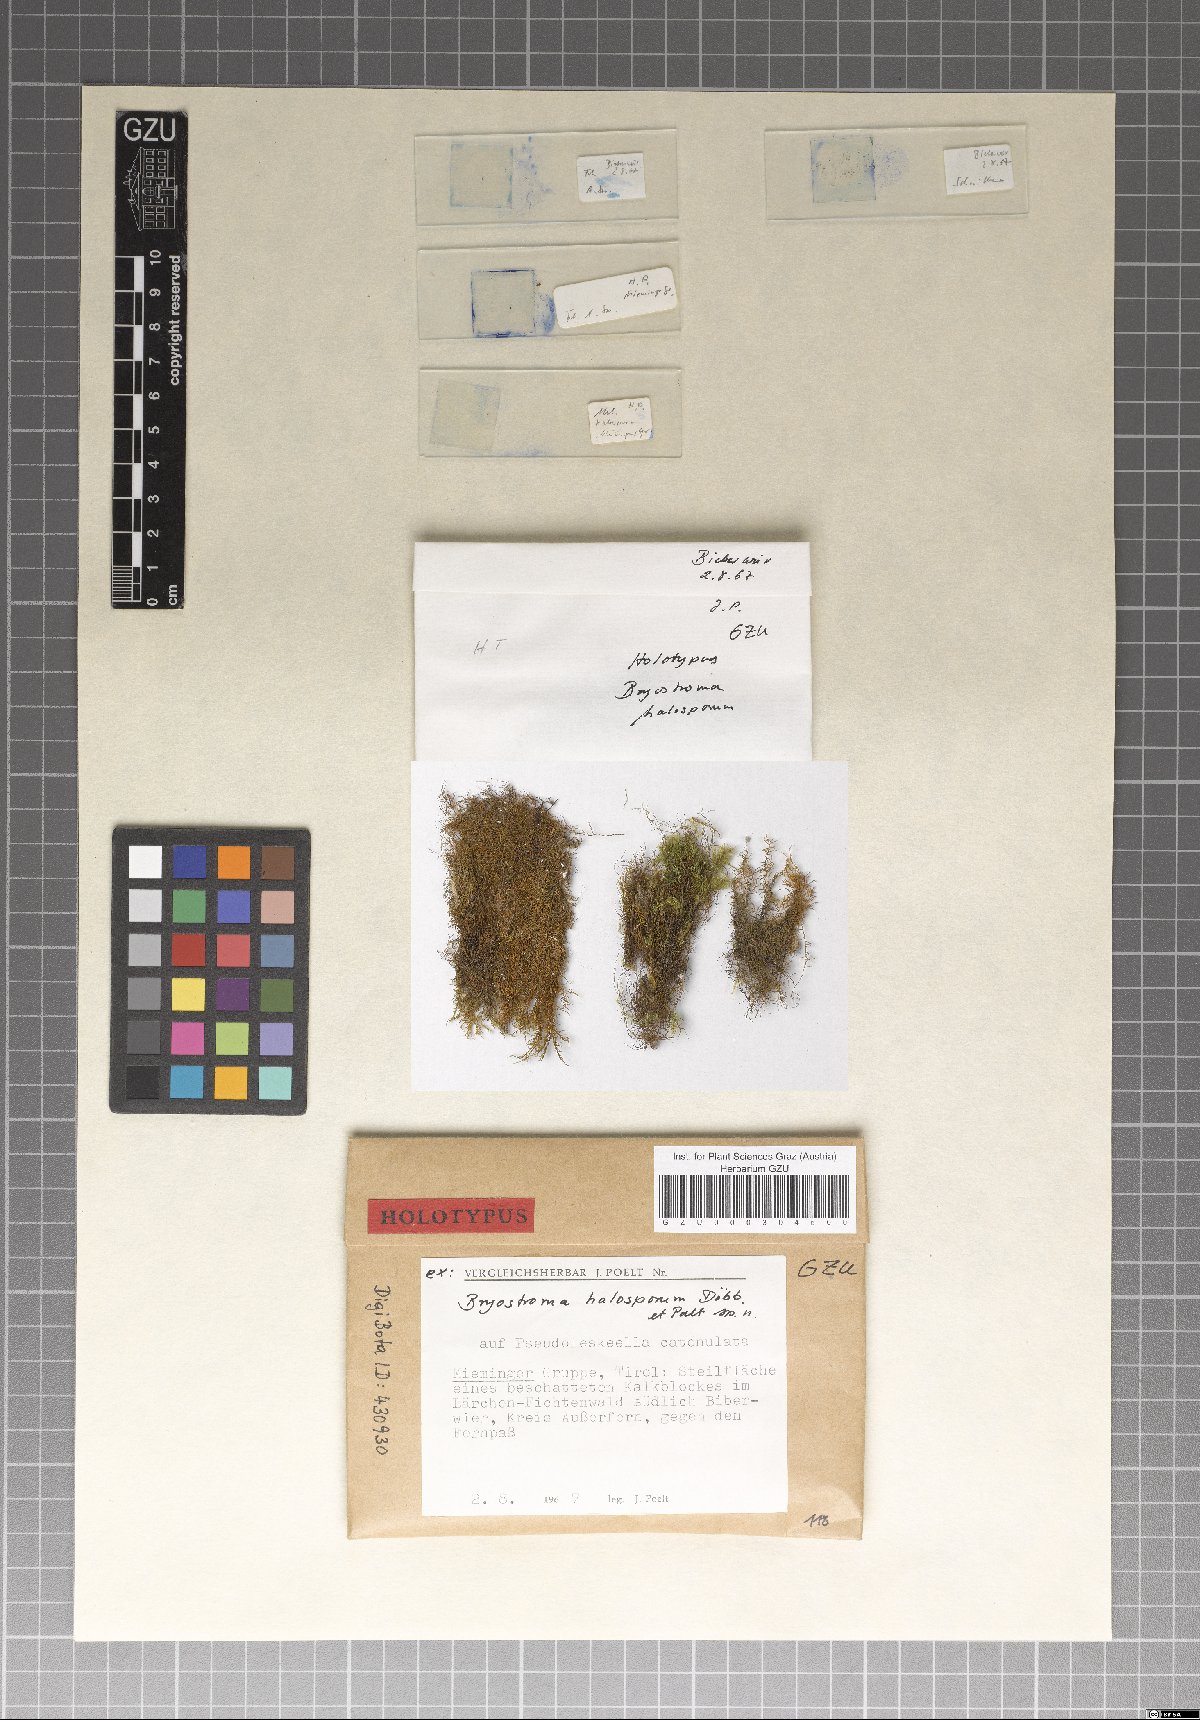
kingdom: Fungi
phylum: Ascomycota
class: Dothideomycetes
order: Dothideales
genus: Bryostroma
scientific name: Bryostroma halosporum
